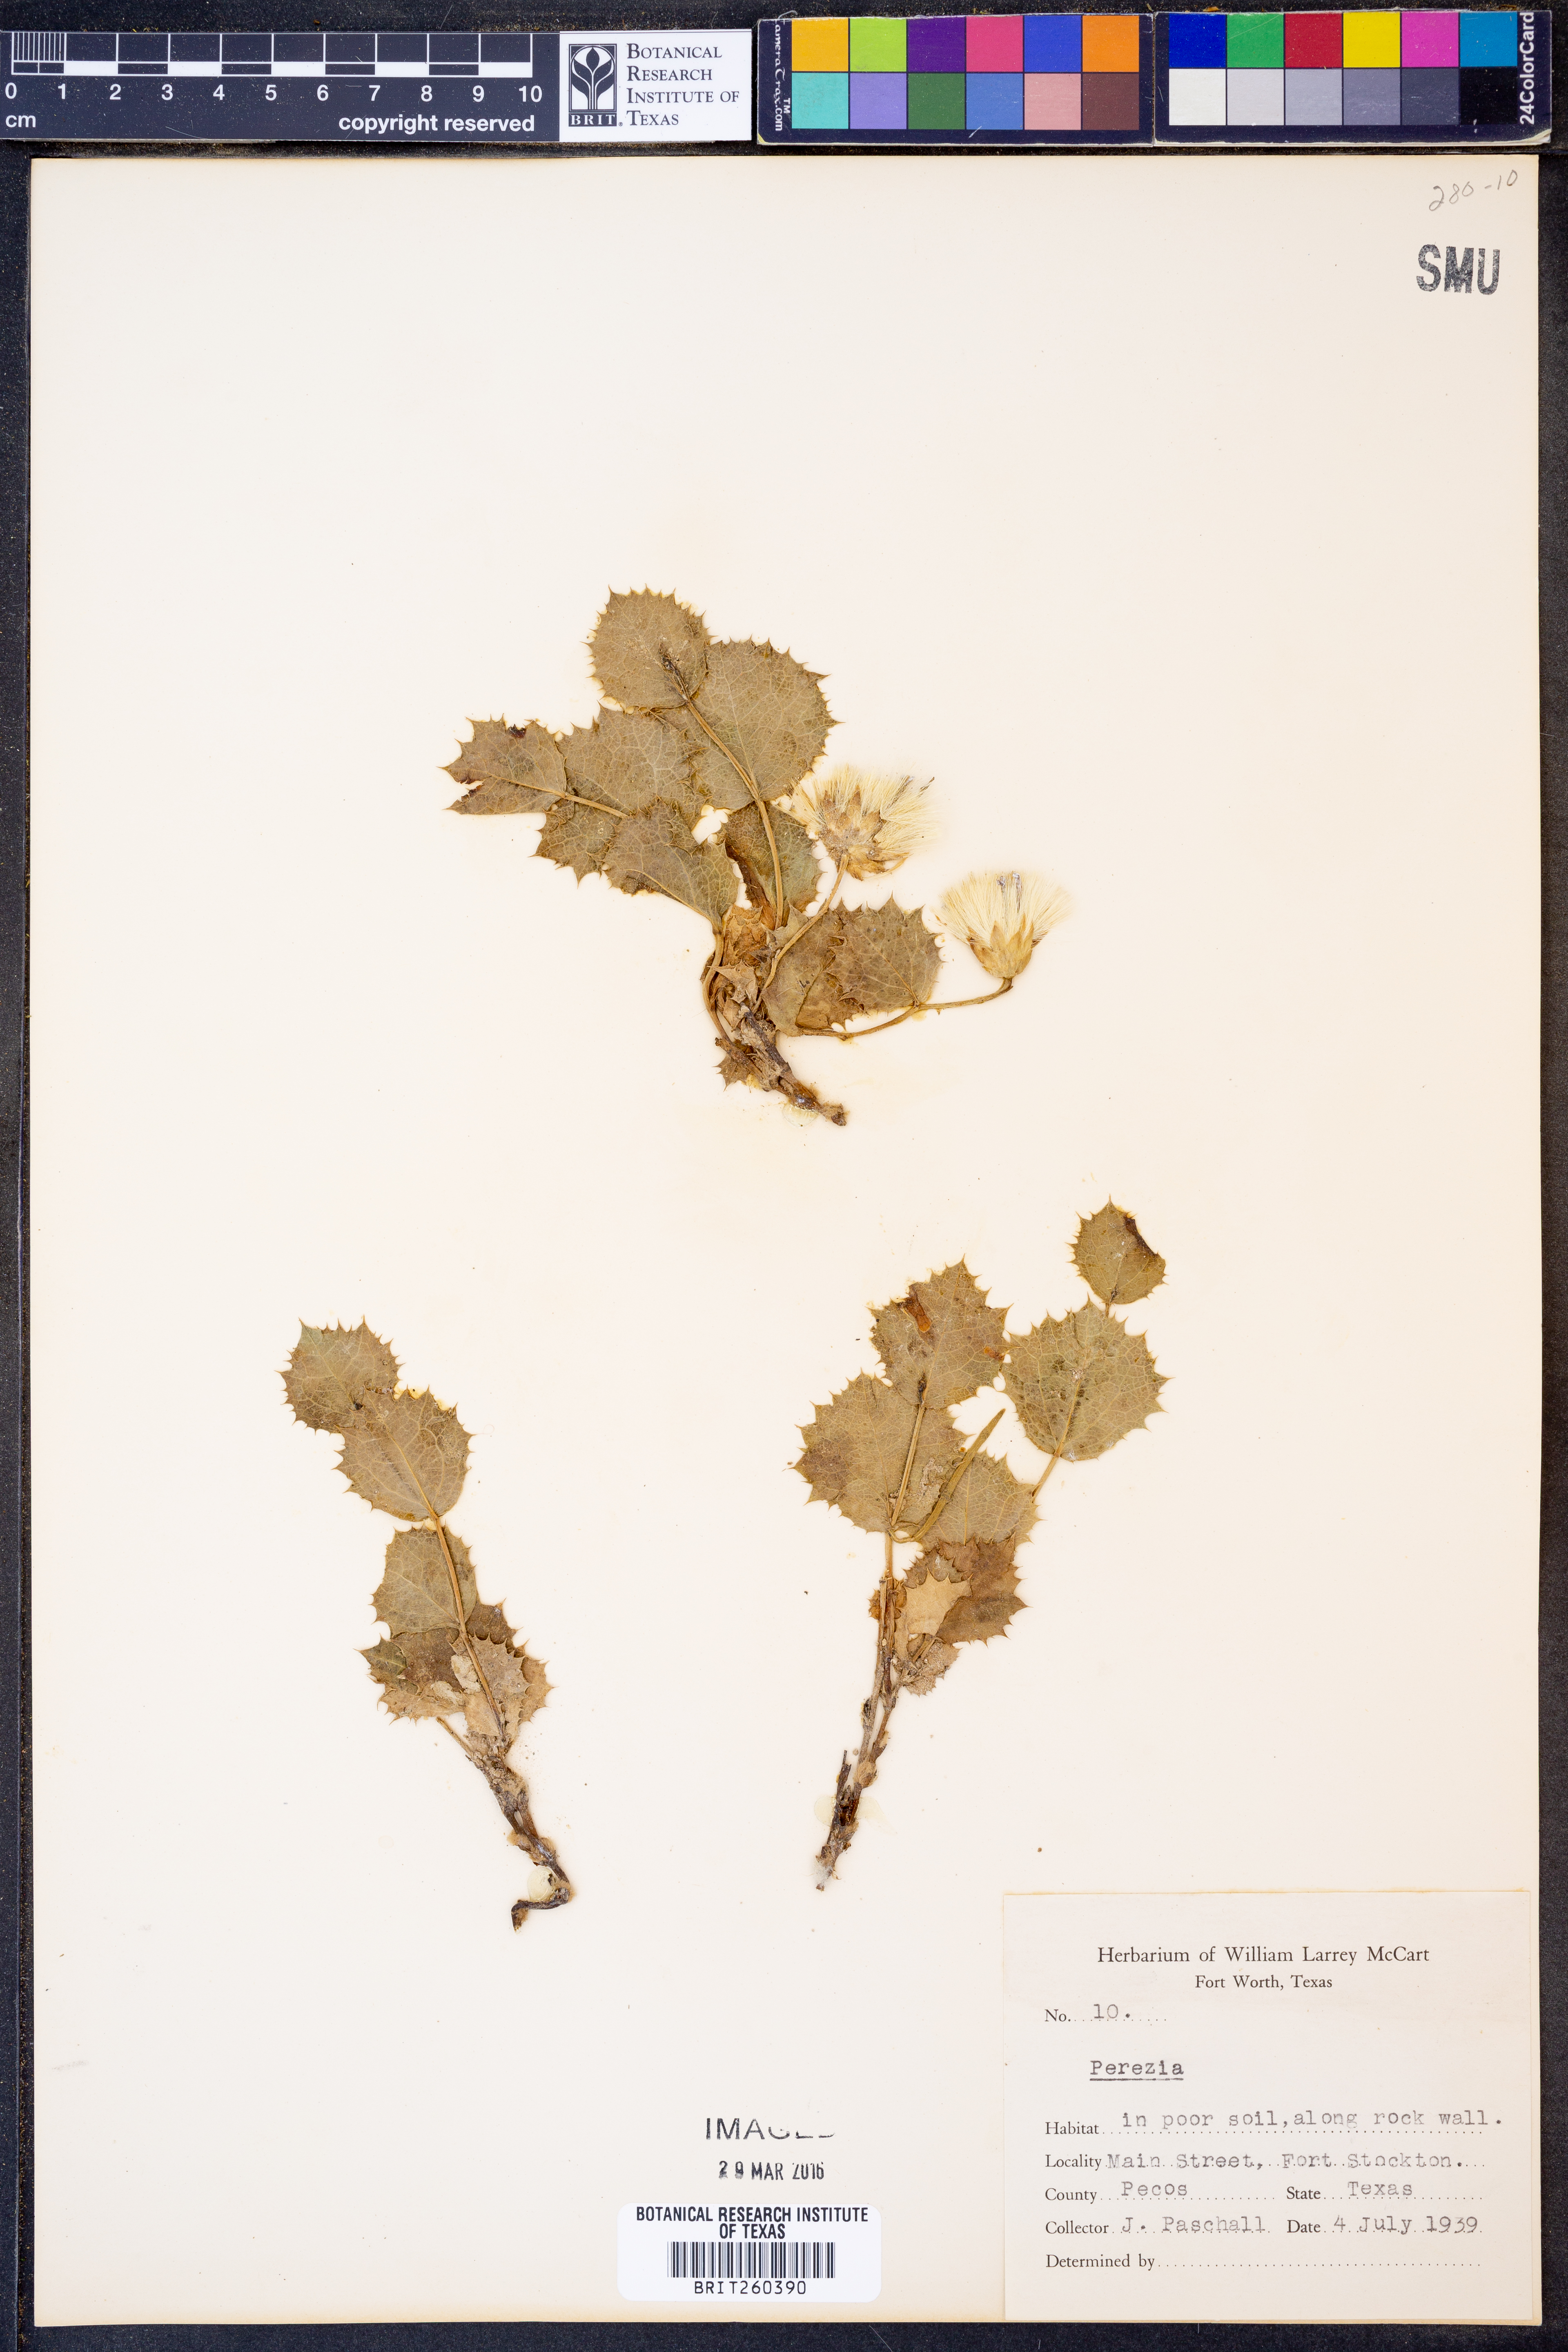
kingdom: Plantae
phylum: Tracheophyta
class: Magnoliopsida
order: Asterales
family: Asteraceae
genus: Perezia
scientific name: Perezia
